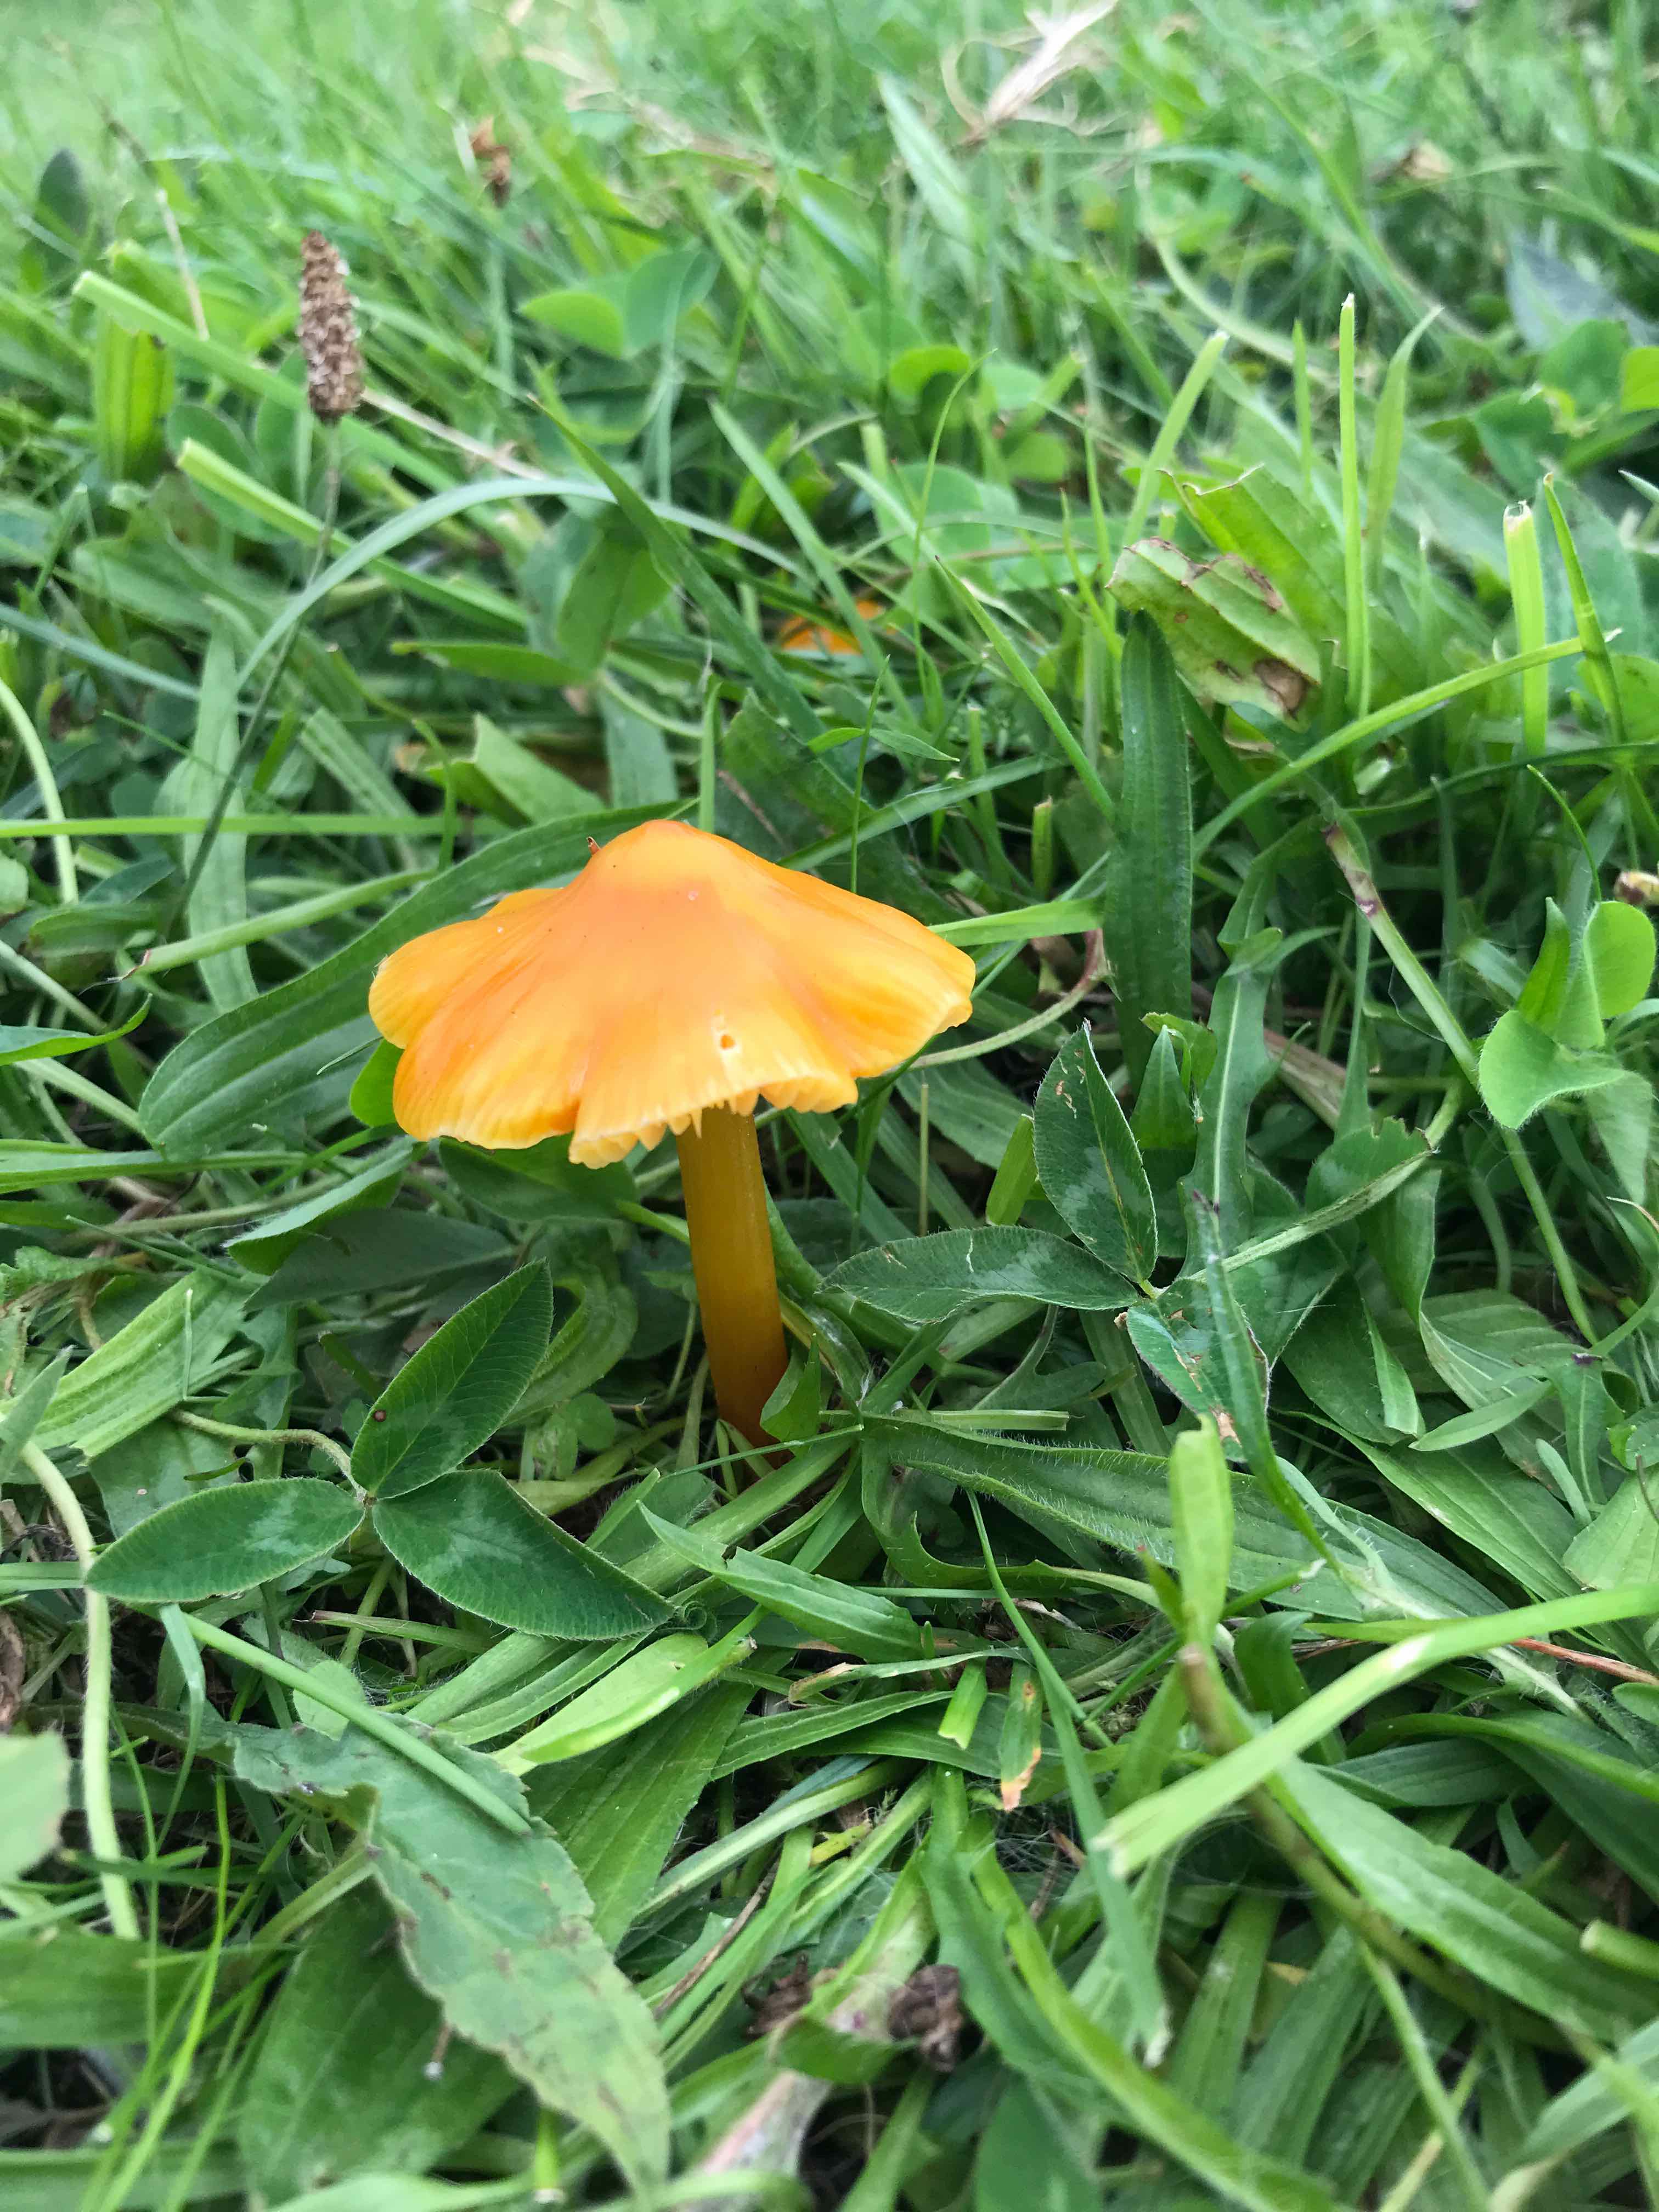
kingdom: Fungi
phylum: Basidiomycota
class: Agaricomycetes
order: Agaricales
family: Hygrophoraceae
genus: Hygrocybe
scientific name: Hygrocybe
